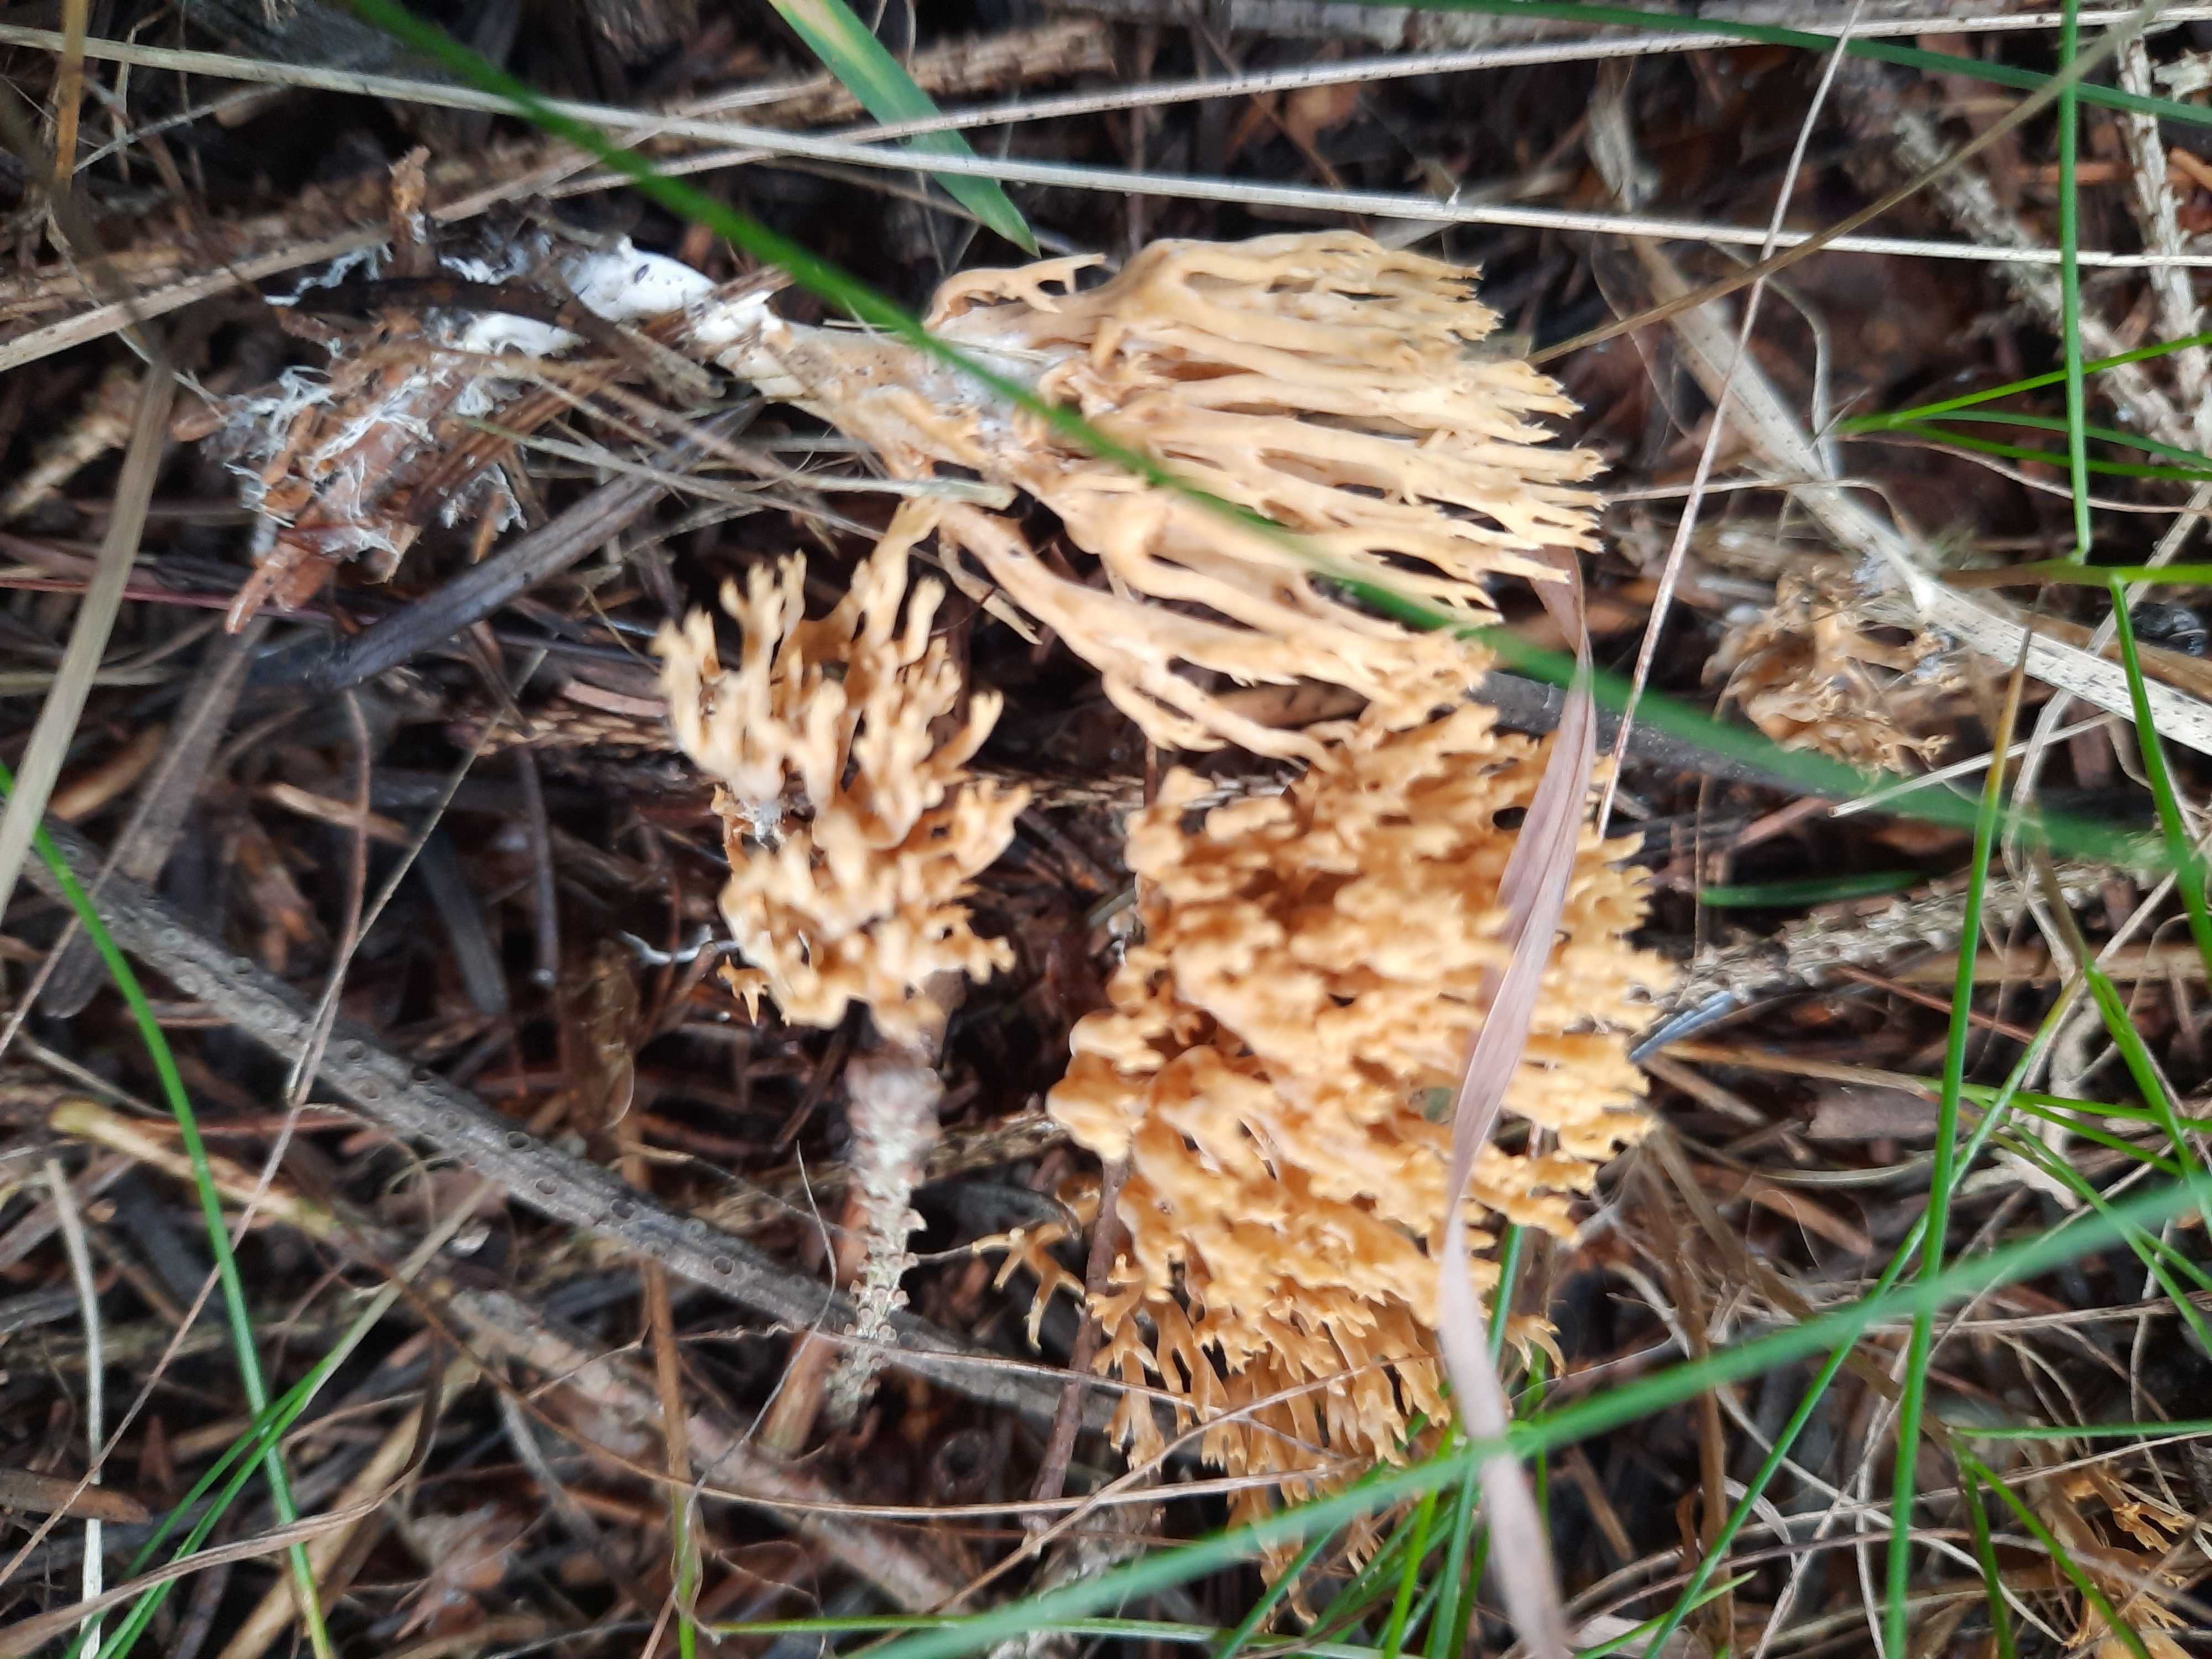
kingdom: Fungi
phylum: Basidiomycota
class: Agaricomycetes
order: Gomphales
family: Gomphaceae
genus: Phaeoclavulina
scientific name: Phaeoclavulina eumorpha
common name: gran-koralsvamp
